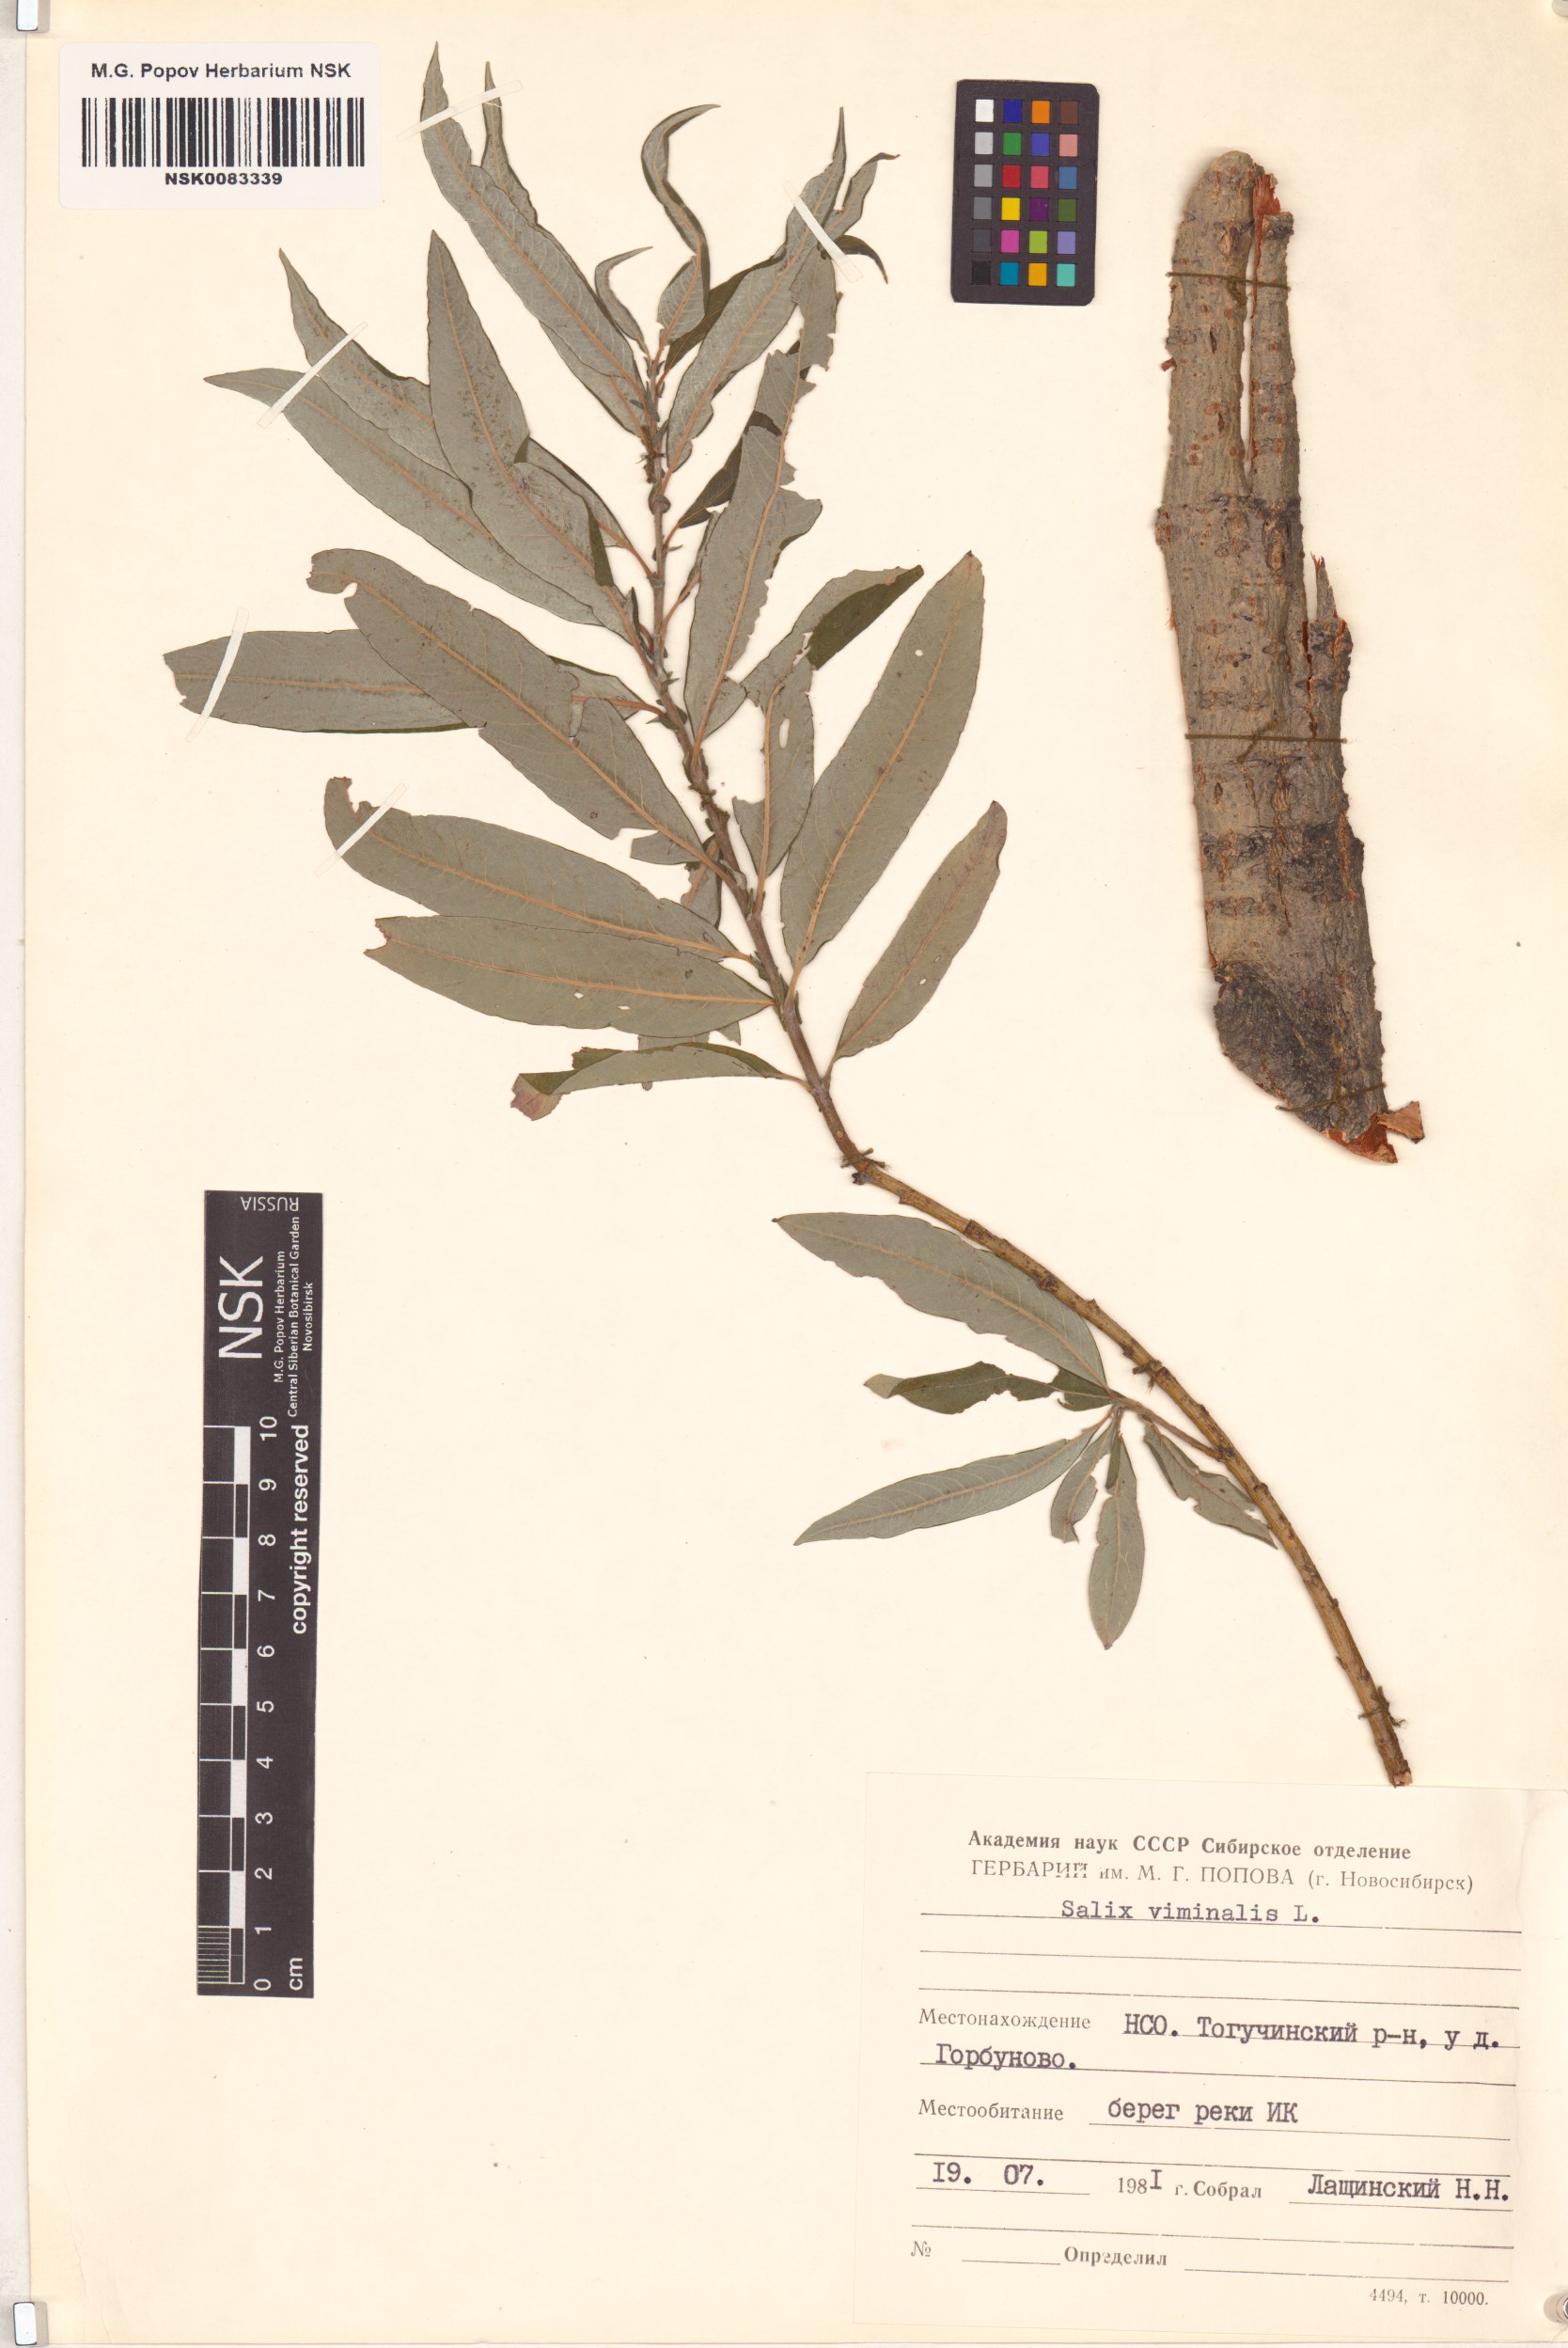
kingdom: Plantae
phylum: Tracheophyta
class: Magnoliopsida
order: Malpighiales
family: Salicaceae
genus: Salix
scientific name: Salix viminalis
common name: Osier
